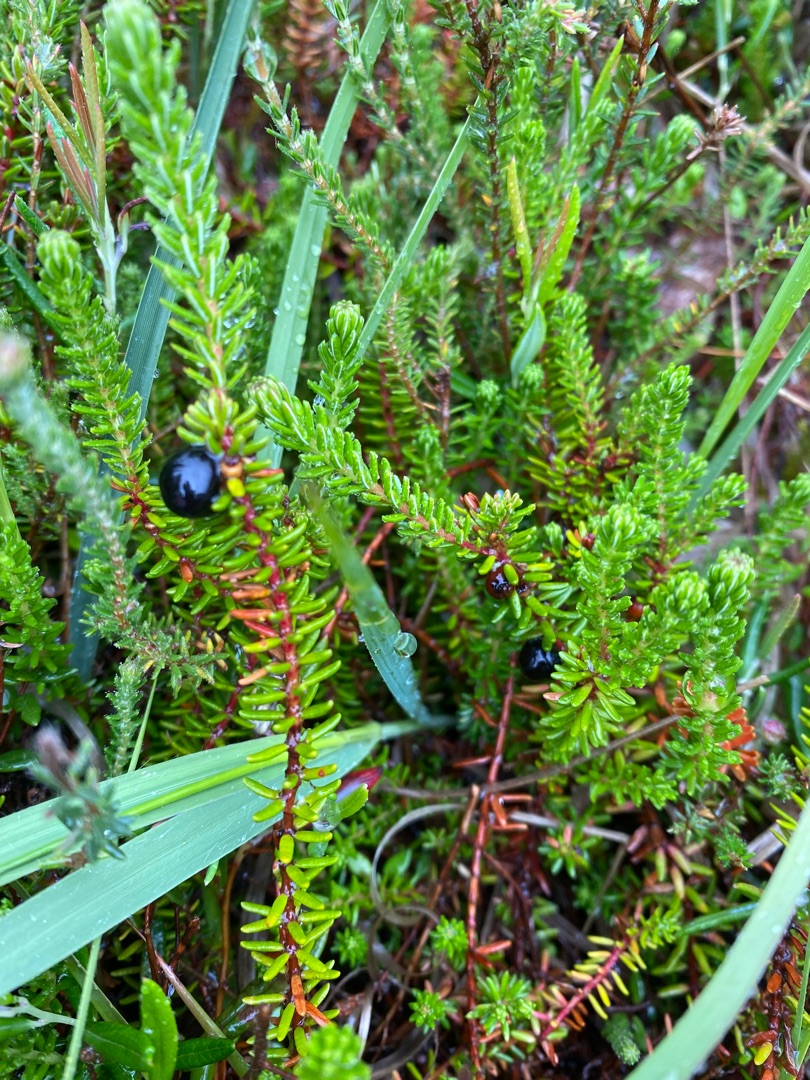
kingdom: Plantae
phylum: Tracheophyta
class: Magnoliopsida
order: Ericales
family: Ericaceae
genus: Empetrum
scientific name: Empetrum nigrum
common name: Revling
